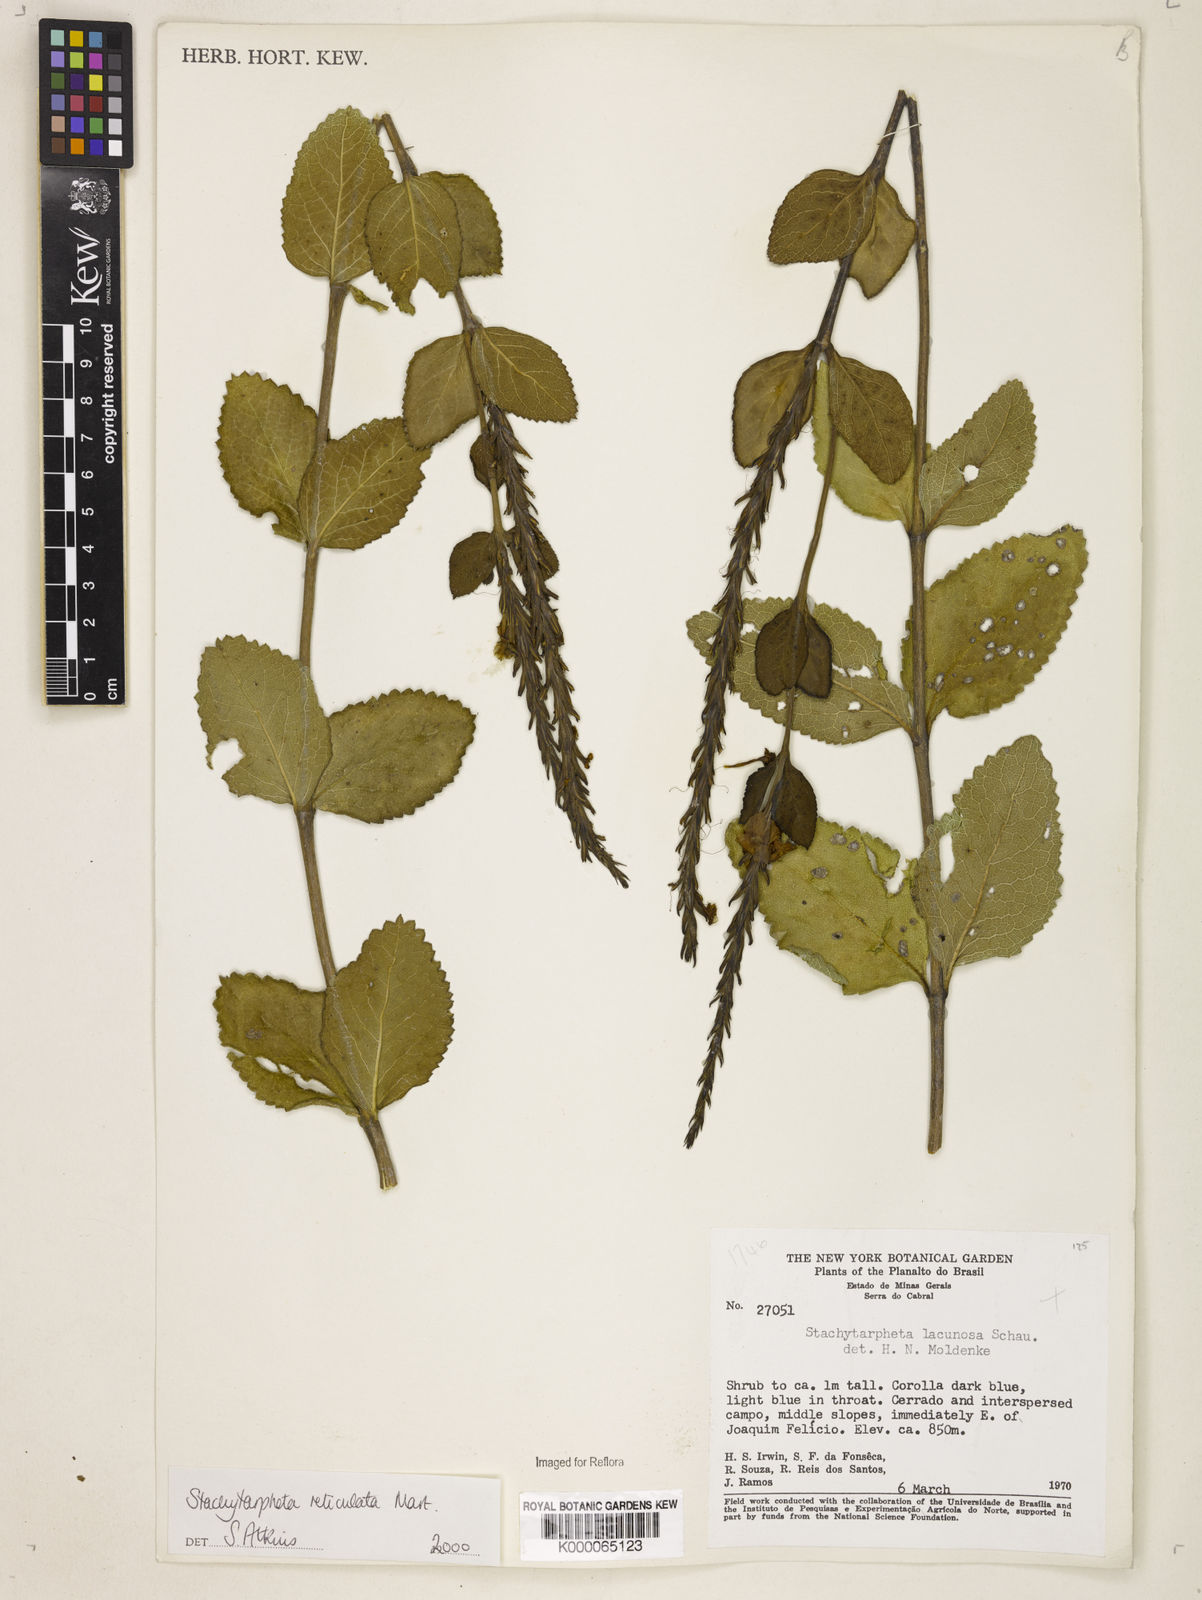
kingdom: Plantae
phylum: Tracheophyta
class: Magnoliopsida
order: Lamiales
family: Verbenaceae
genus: Stachytarpheta
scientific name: Stachytarpheta
